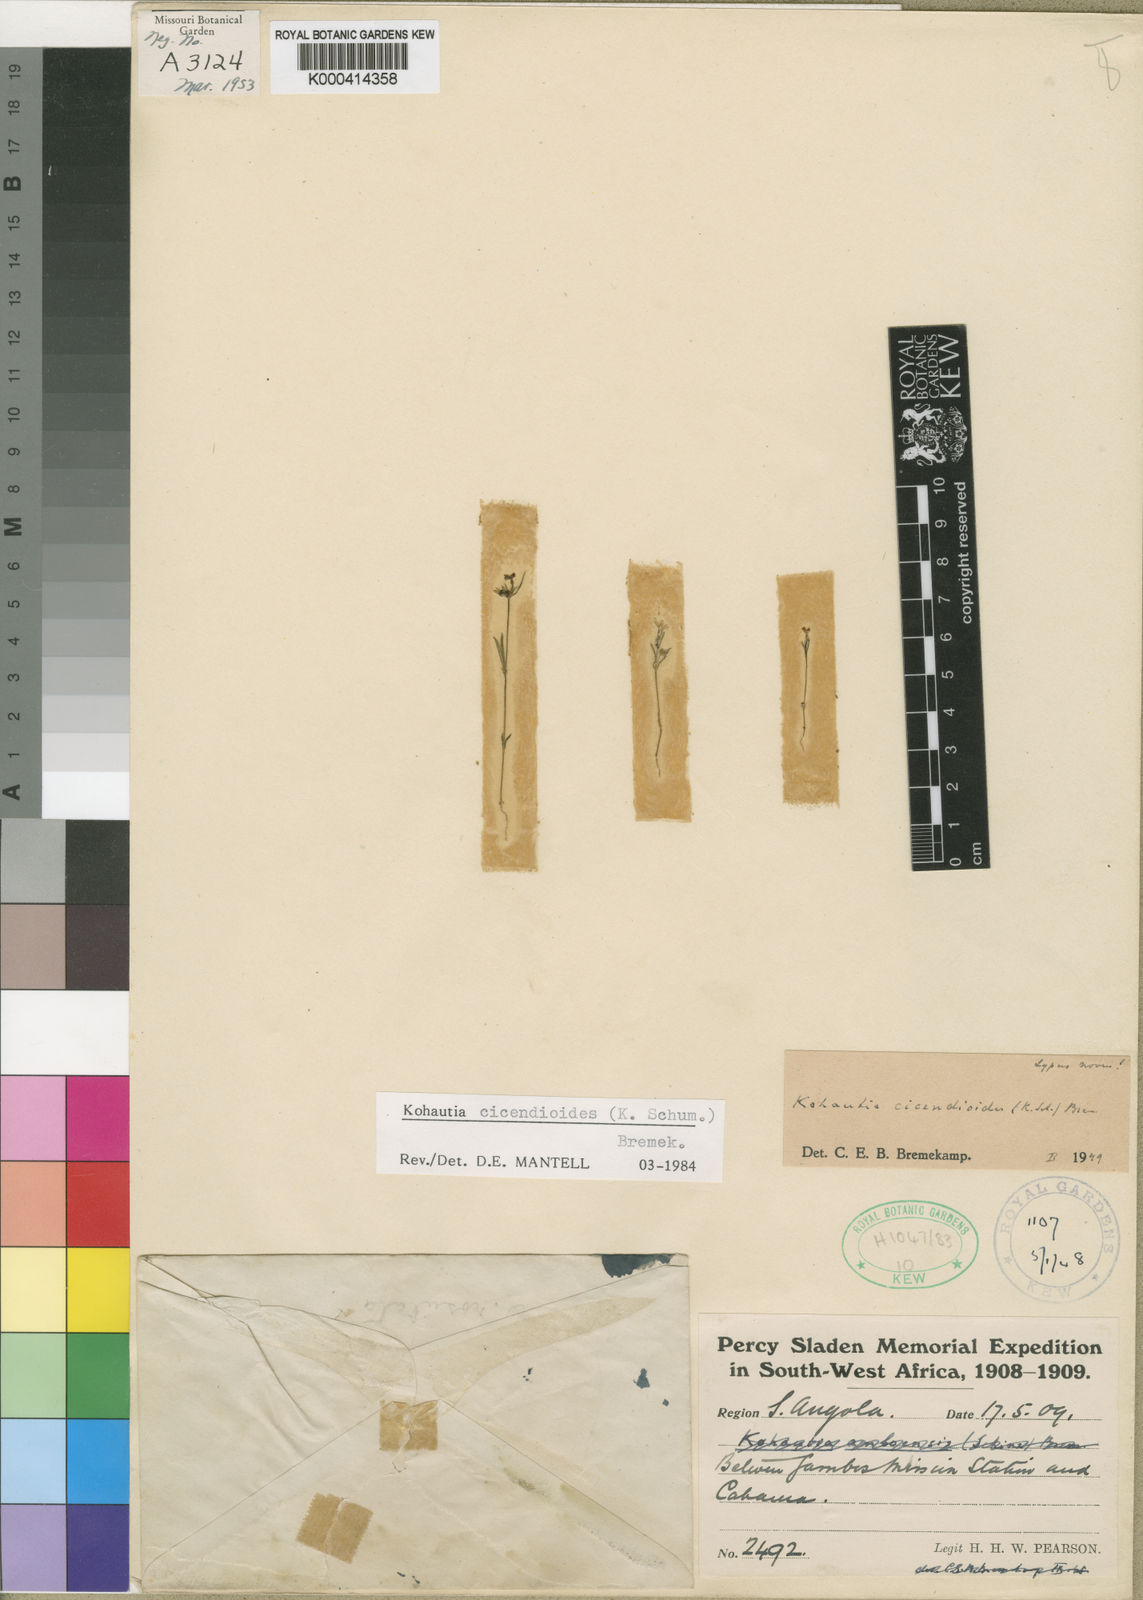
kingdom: Plantae
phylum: Tracheophyta
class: Magnoliopsida
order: Gentianales
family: Rubiaceae
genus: Cordylostigma
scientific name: Cordylostigma cicendioides
